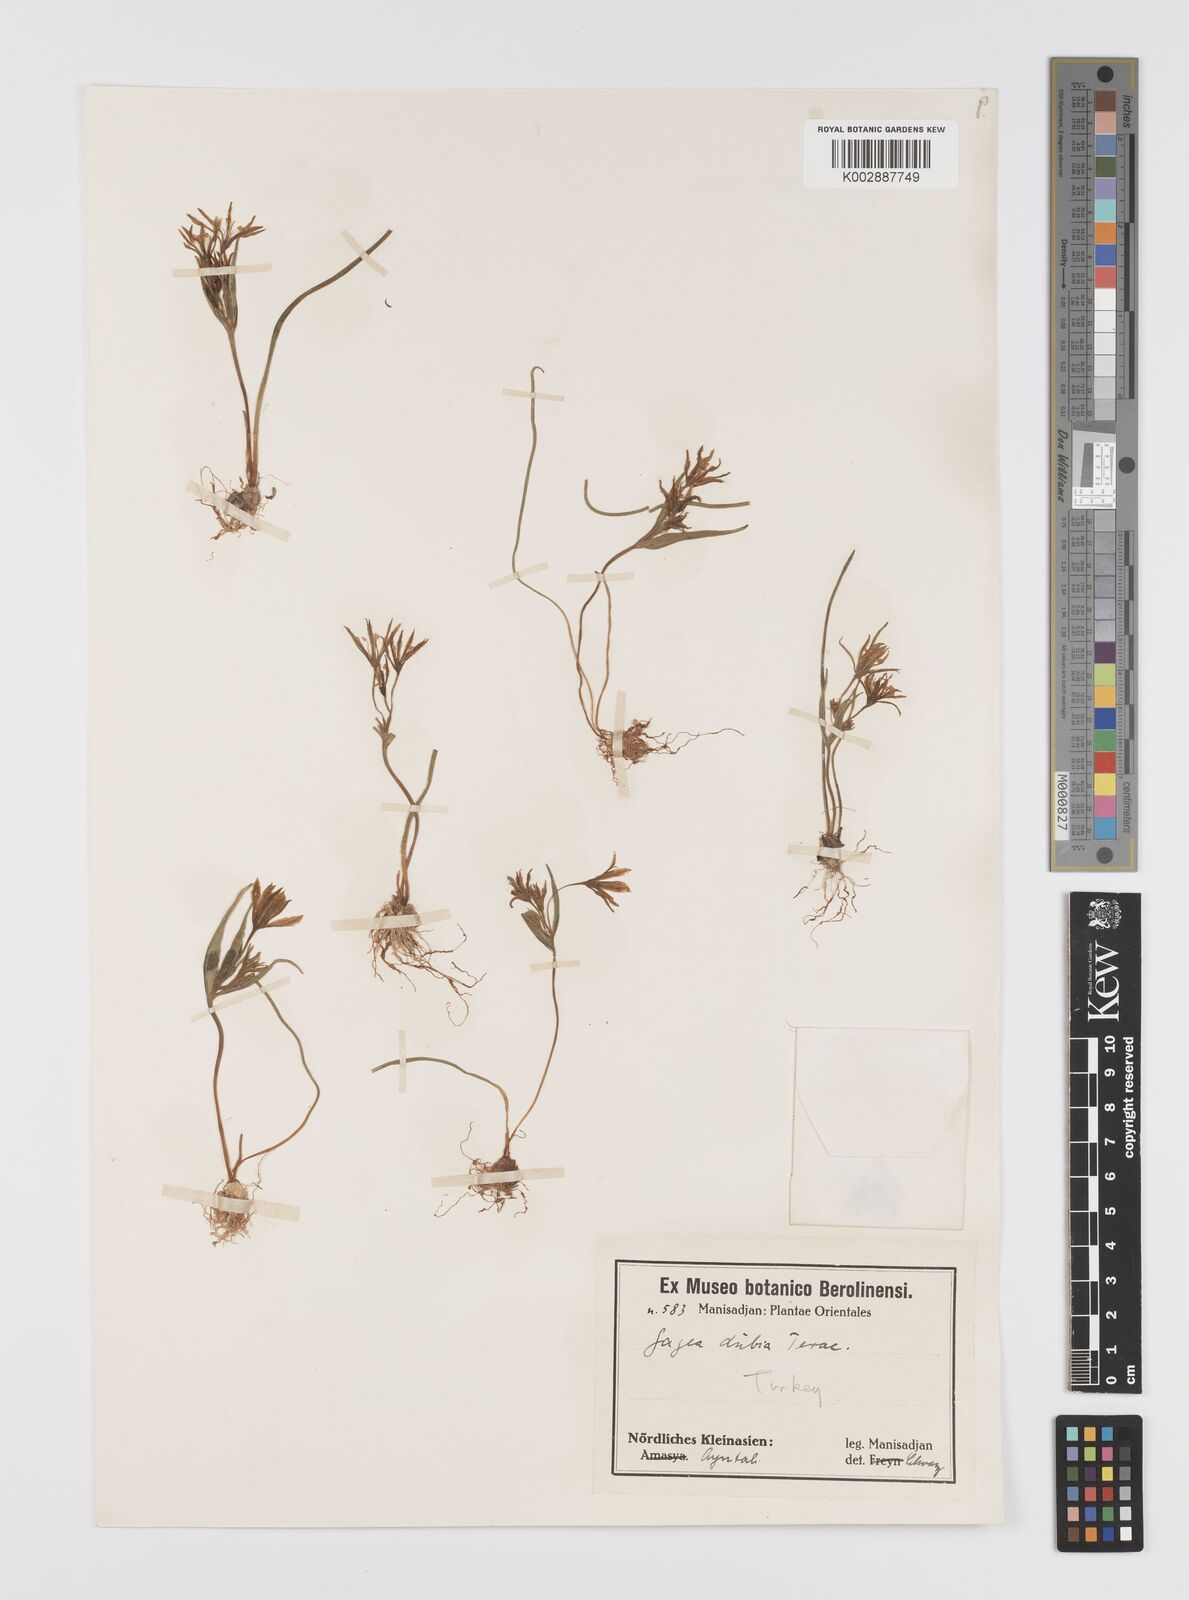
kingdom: Plantae
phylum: Tracheophyta
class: Liliopsida
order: Liliales
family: Liliaceae
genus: Gagea
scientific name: Gagea minima
